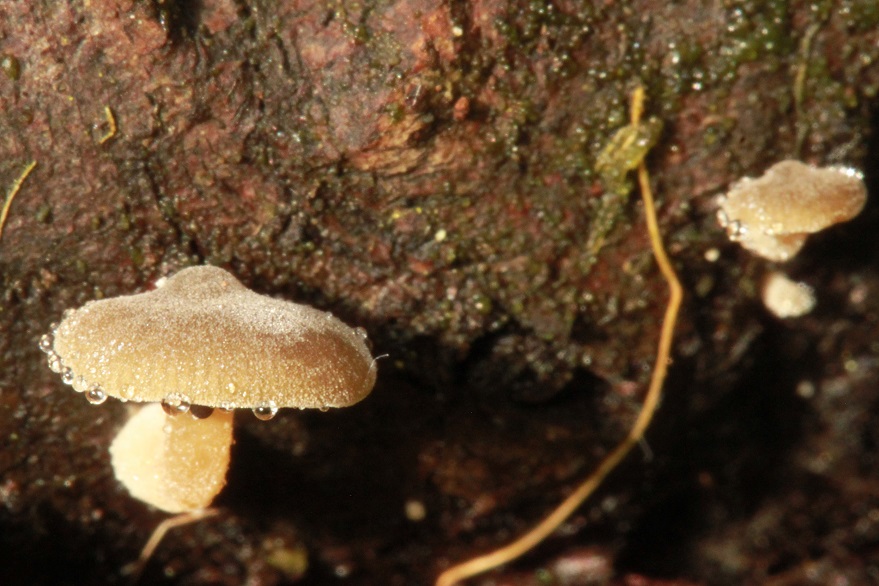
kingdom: Fungi
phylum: Basidiomycota
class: Agaricomycetes
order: Agaricales
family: Crepidotaceae
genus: Simocybe
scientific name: Simocybe haustellaris
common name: skæv skyggehat
